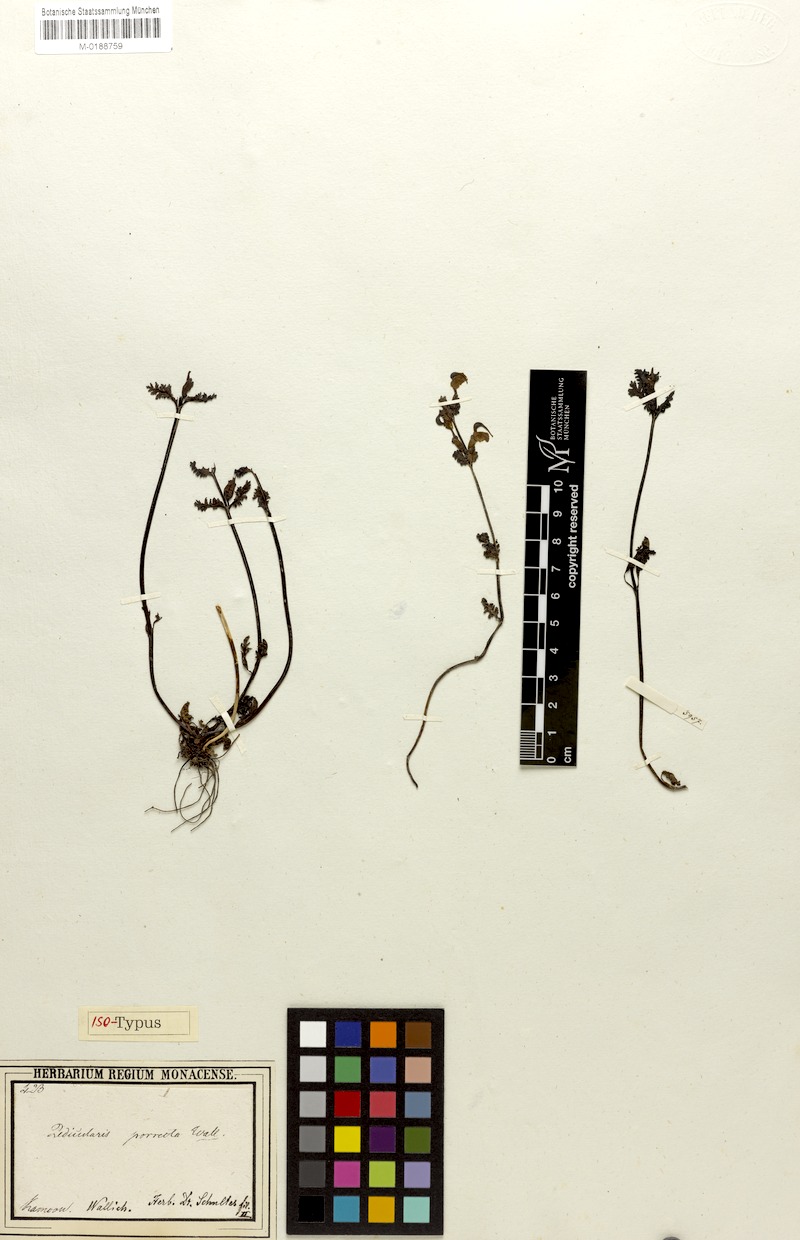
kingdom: Plantae
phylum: Tracheophyta
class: Magnoliopsida
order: Lamiales
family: Orobanchaceae
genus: Pedicularis
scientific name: Pedicularis porrecta
